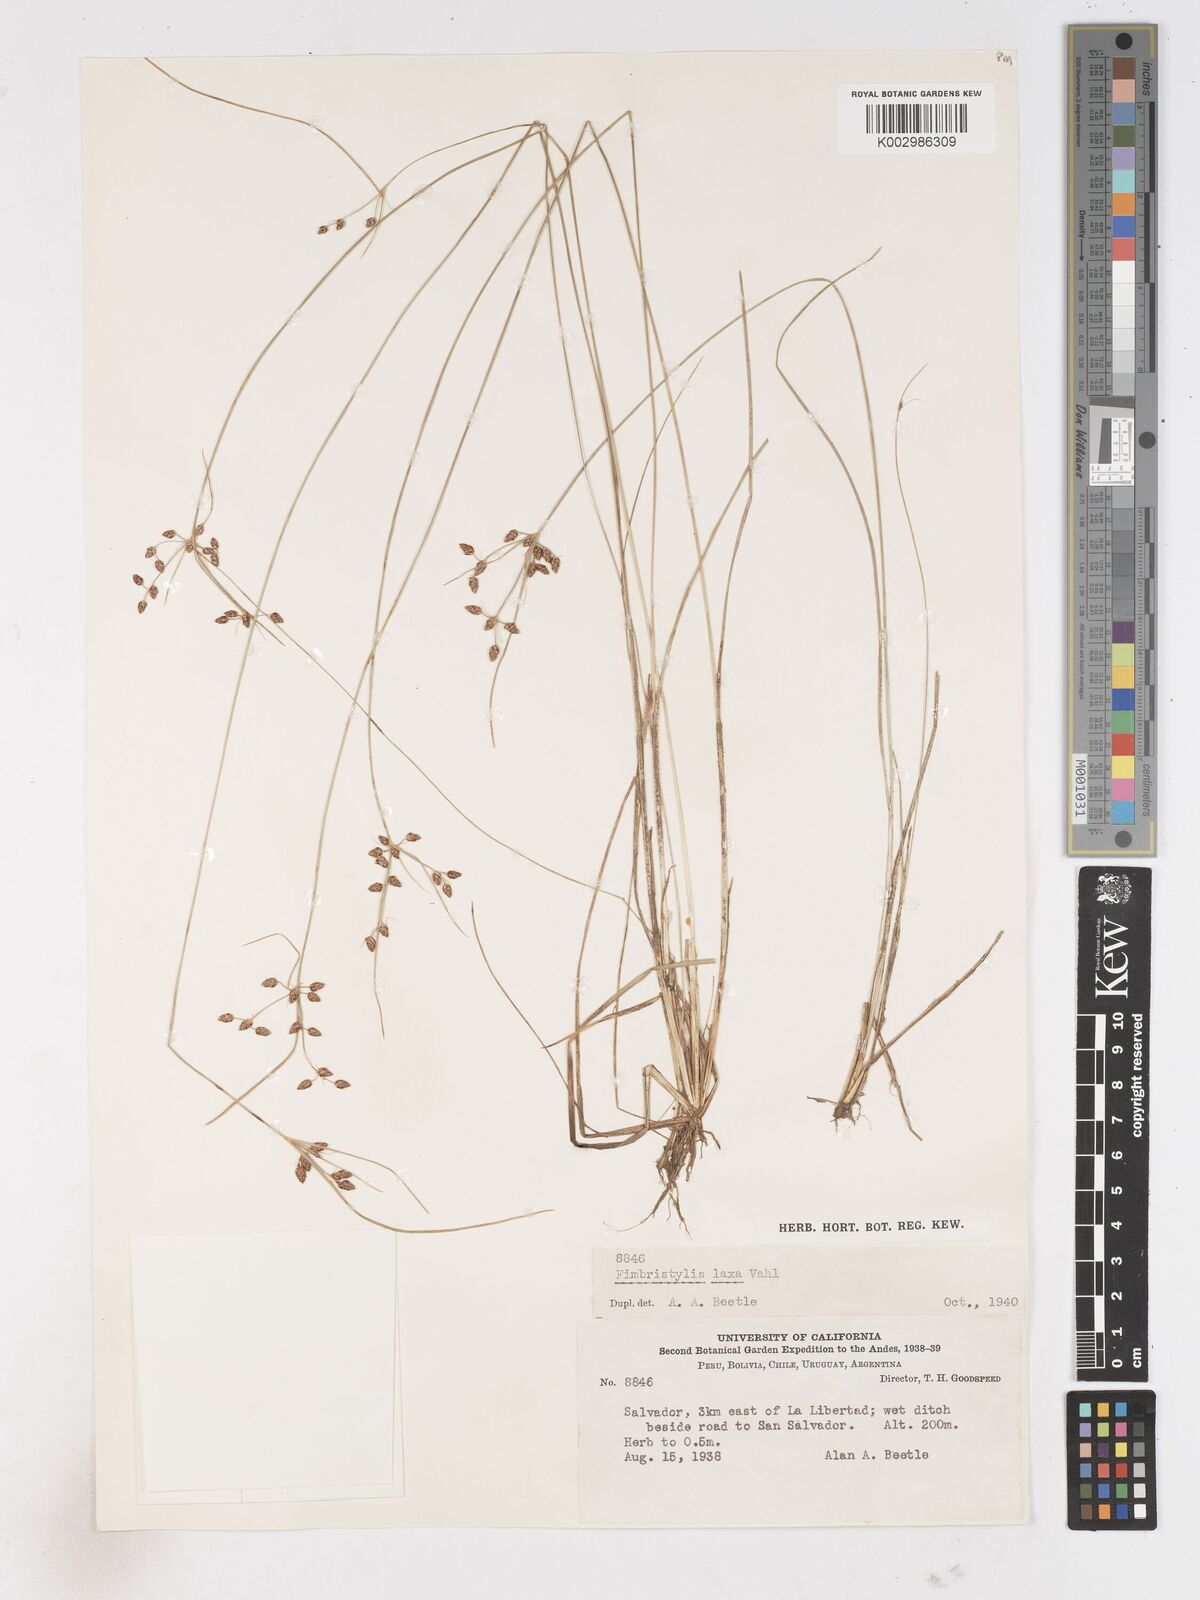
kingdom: Plantae
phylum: Tracheophyta
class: Liliopsida
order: Poales
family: Cyperaceae
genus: Fimbristylis
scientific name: Fimbristylis dichotoma
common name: Forked fimbry
